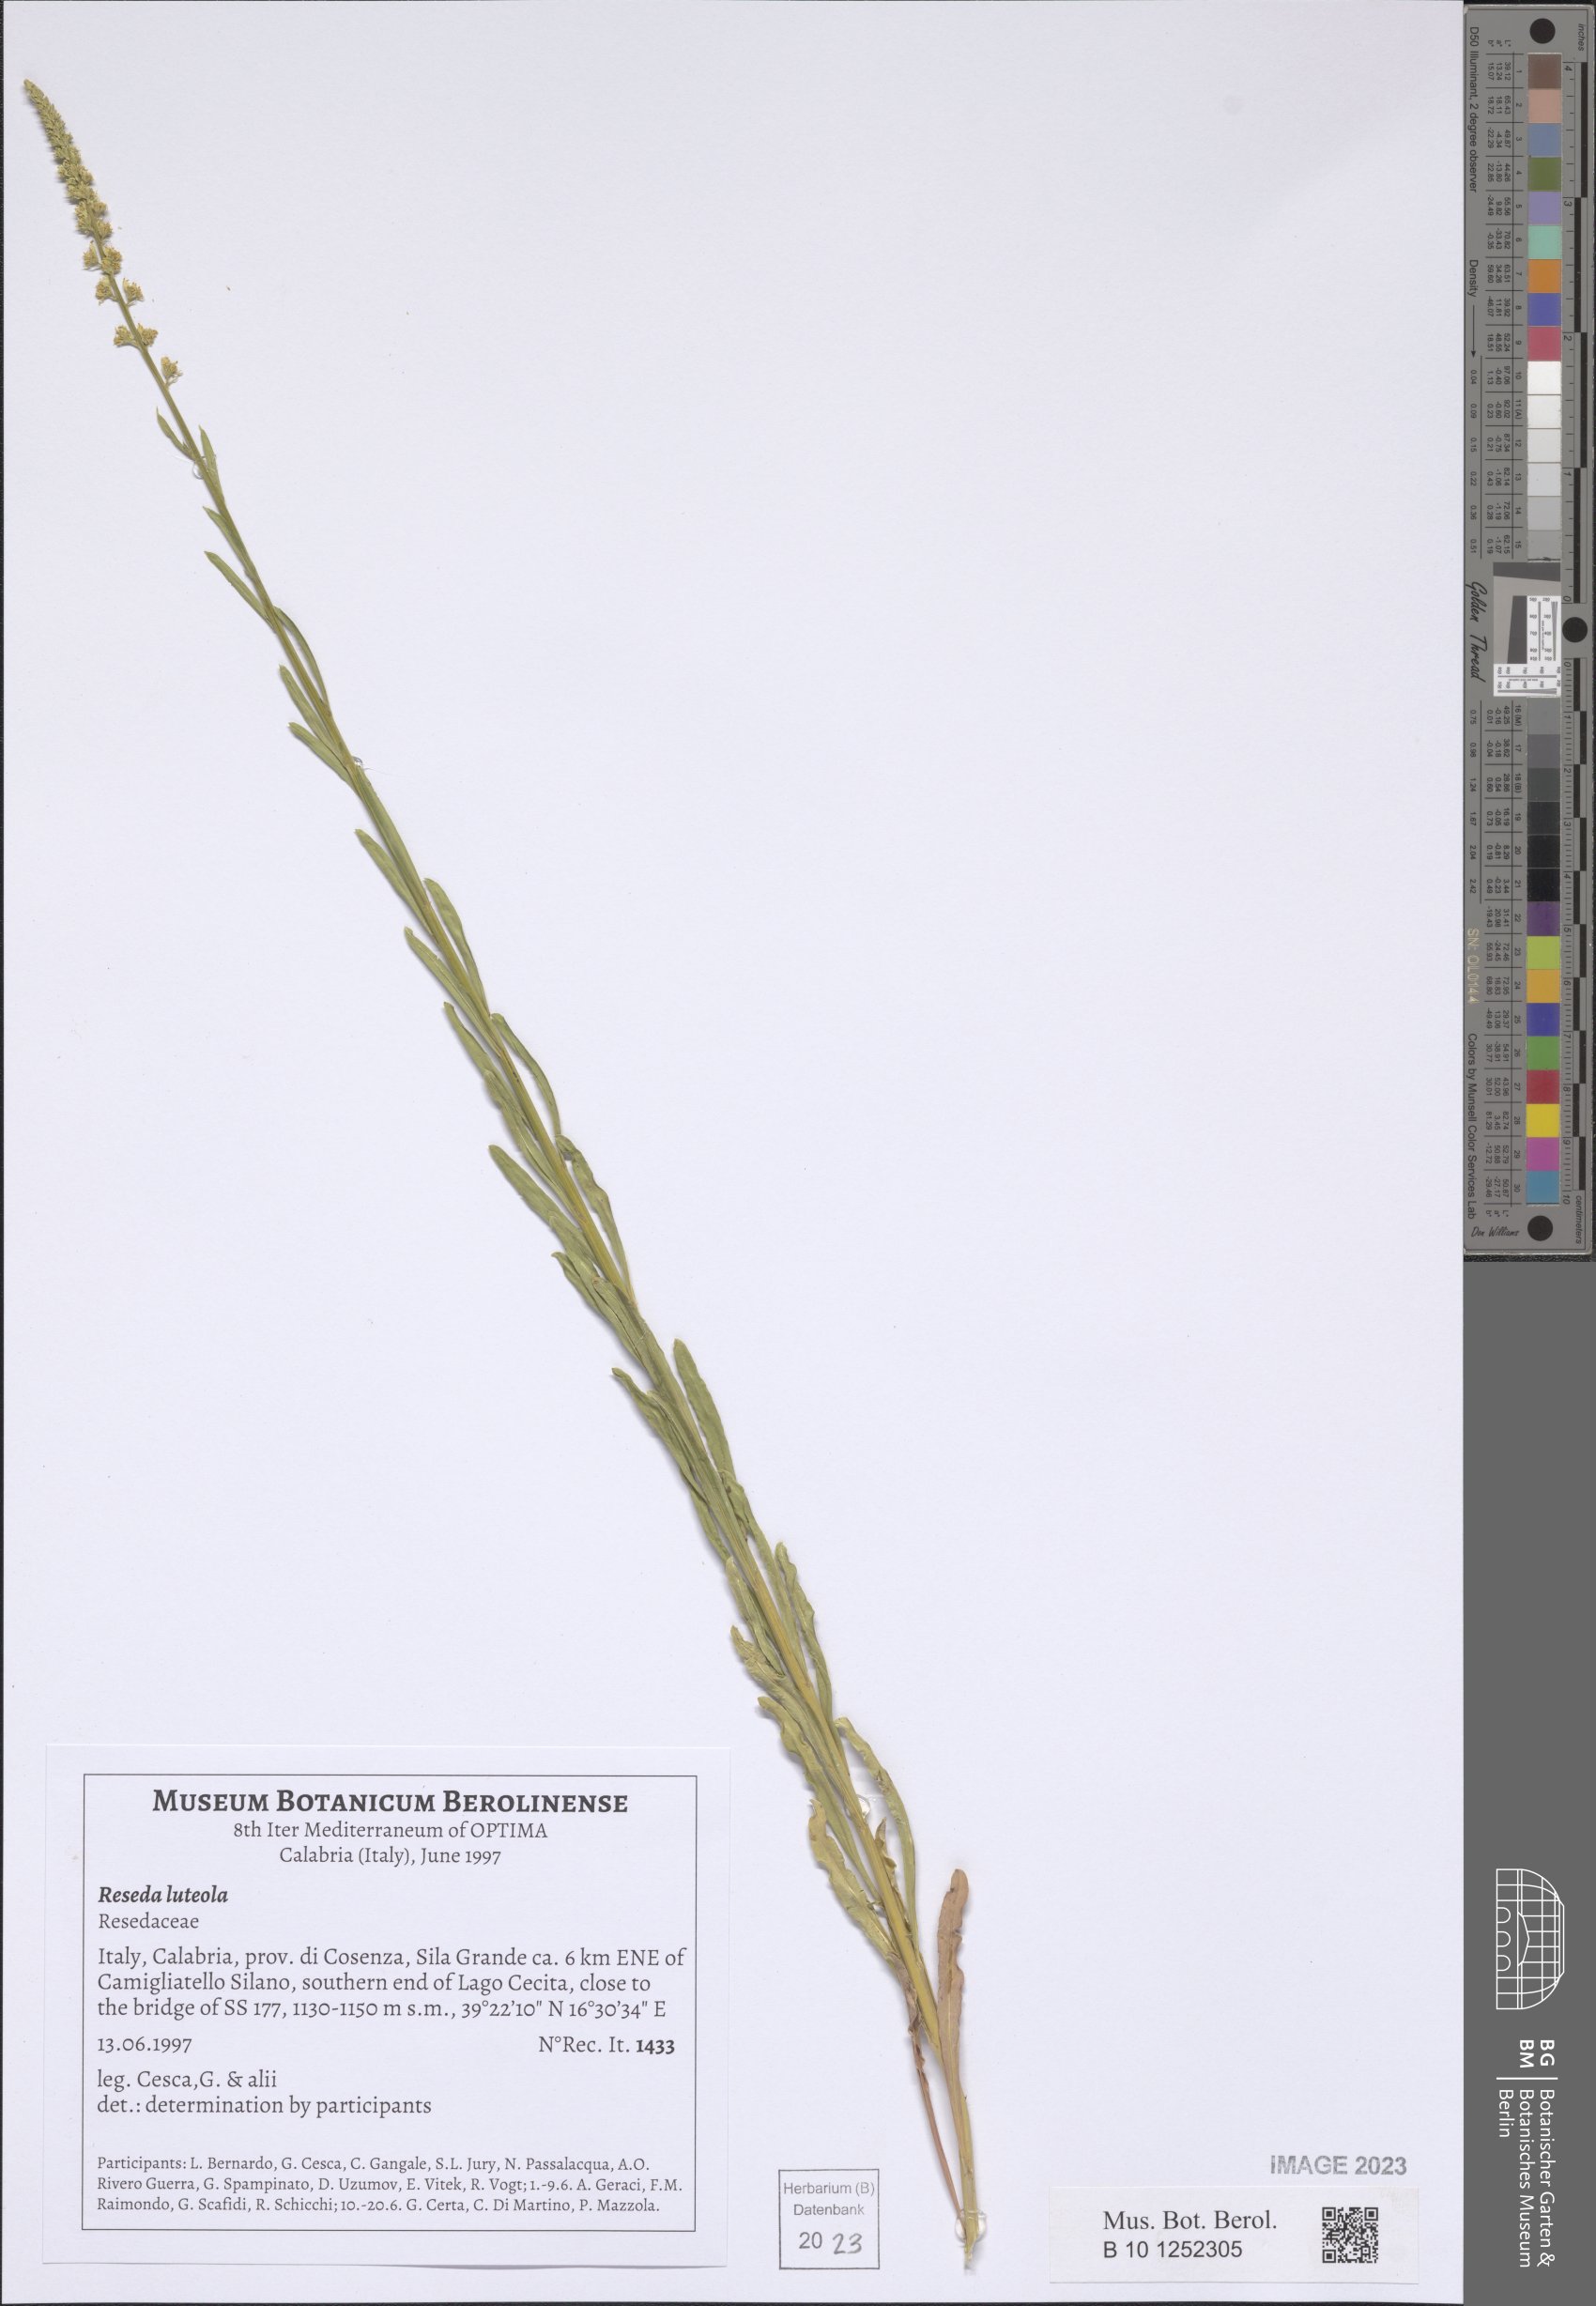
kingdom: Plantae
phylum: Tracheophyta
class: Magnoliopsida
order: Brassicales
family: Resedaceae
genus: Reseda
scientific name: Reseda luteola
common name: Weld
